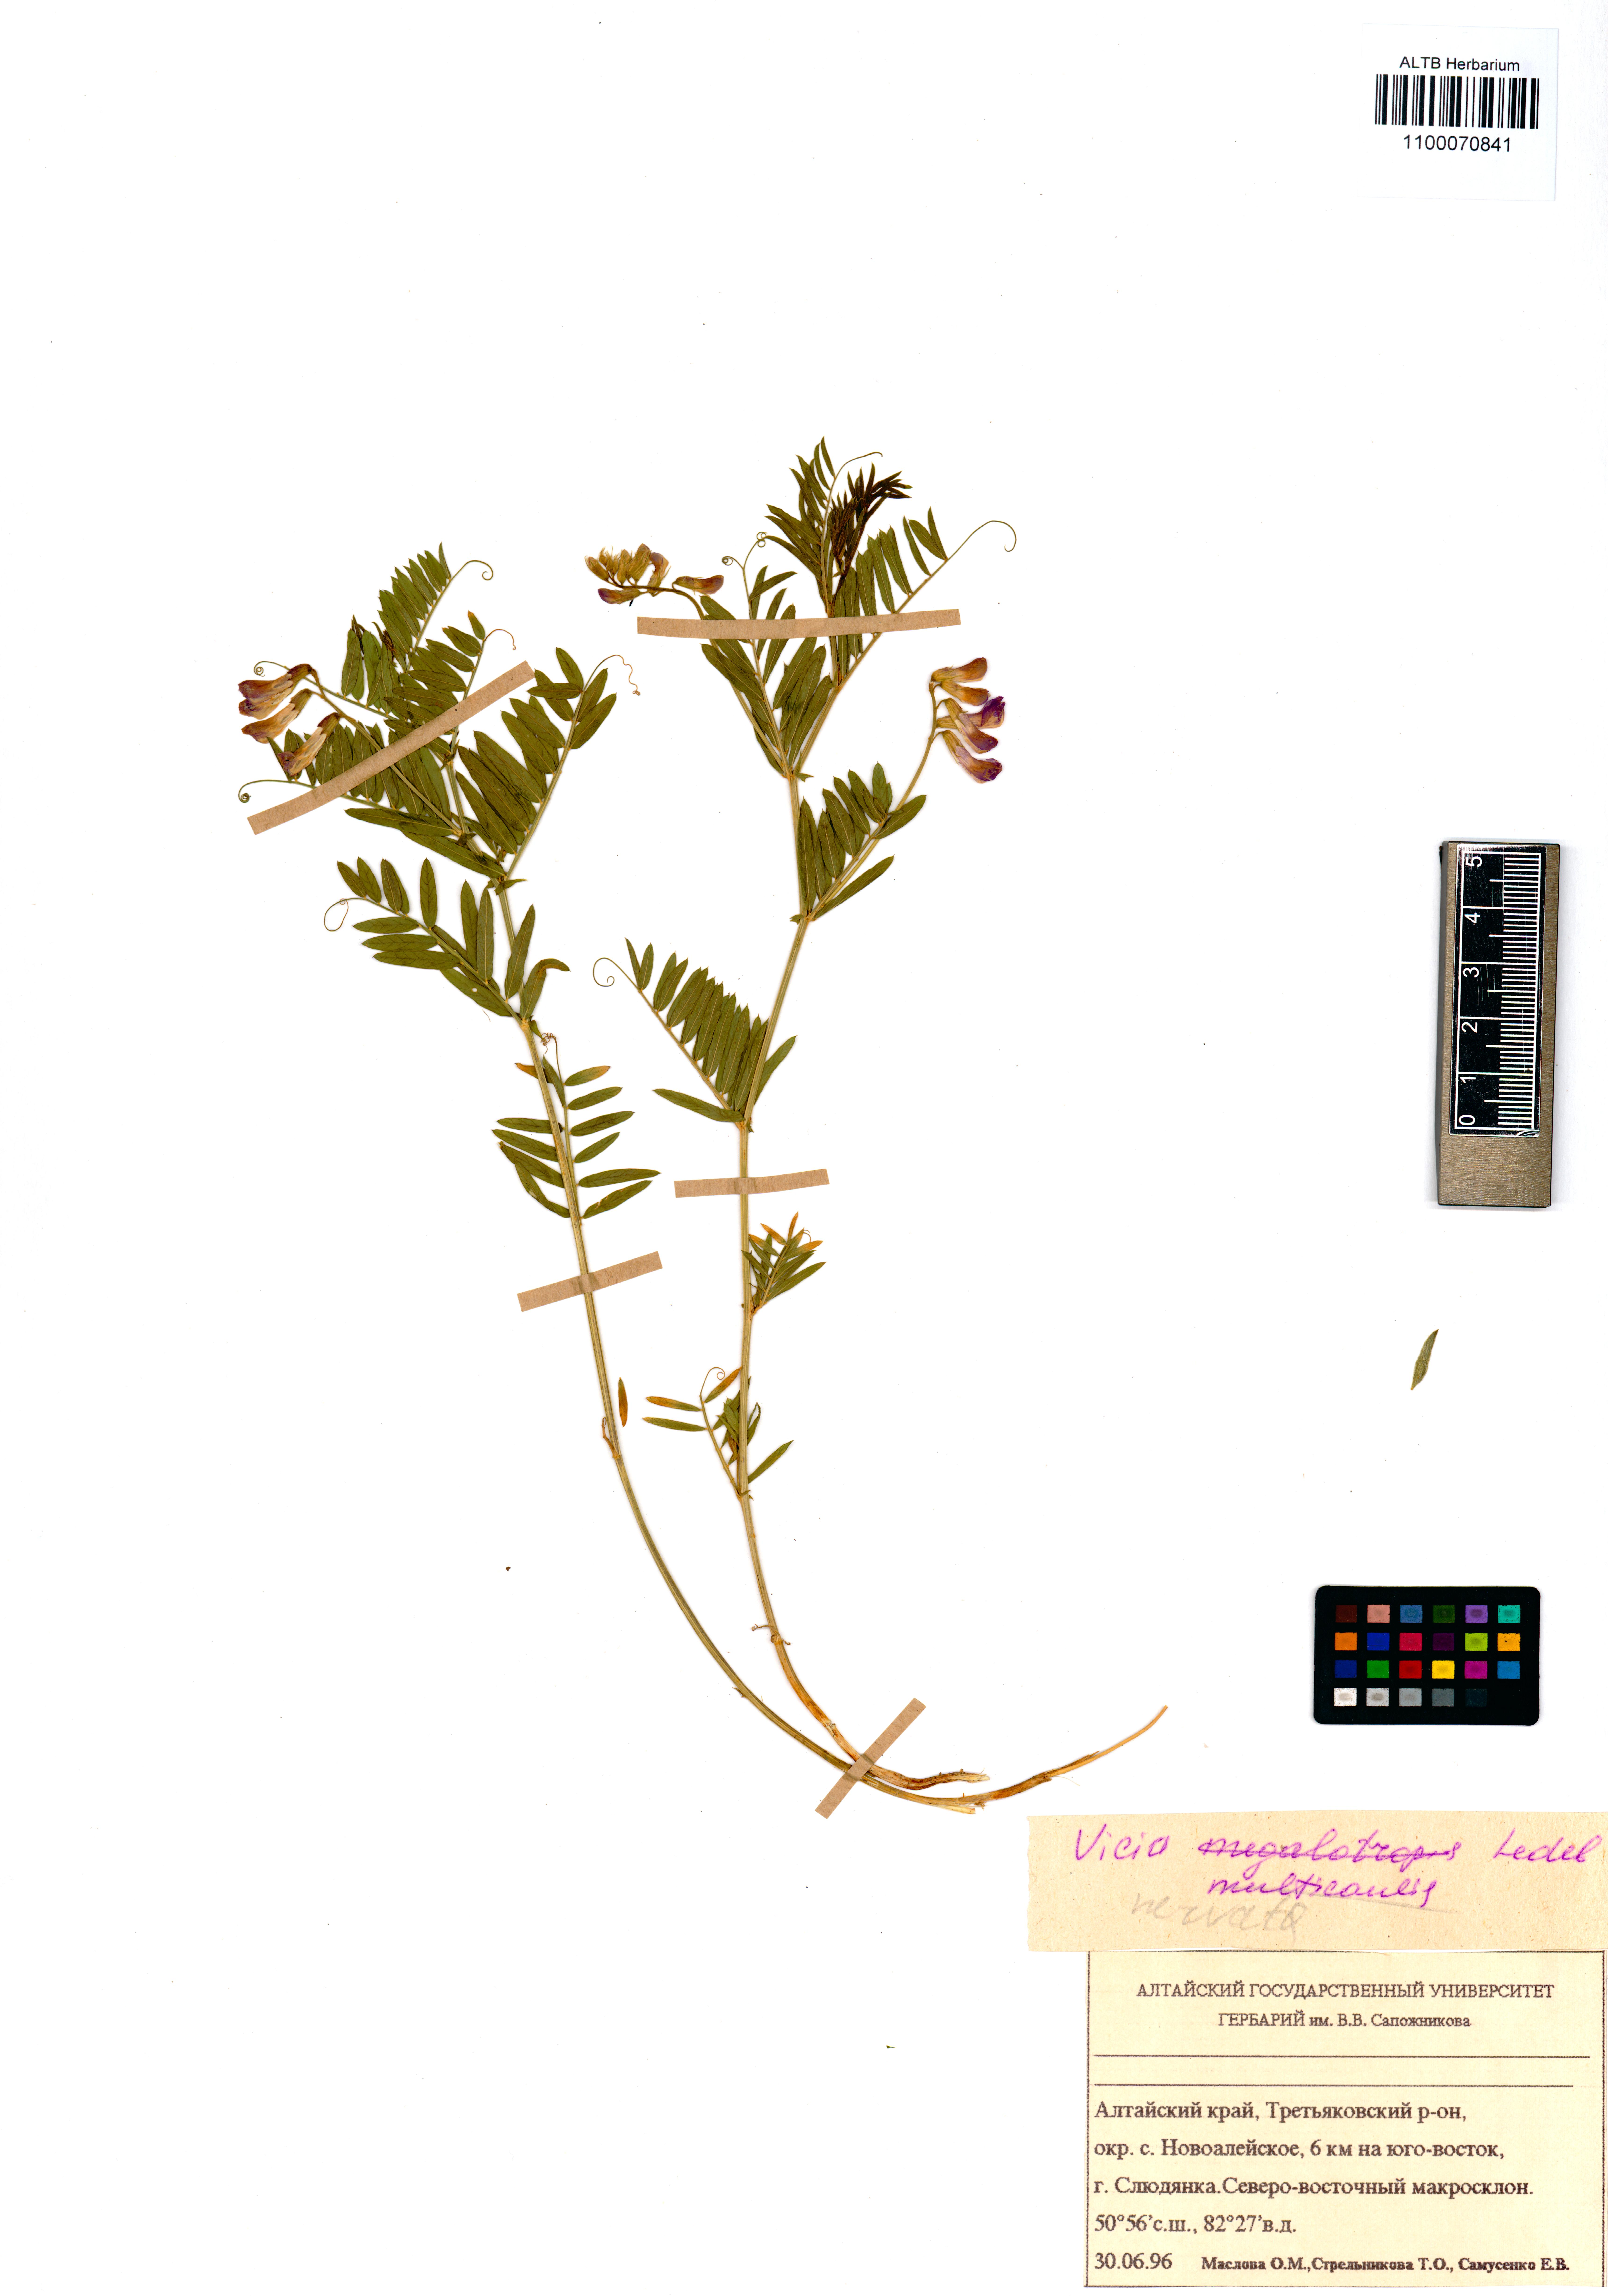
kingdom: Plantae
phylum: Tracheophyta
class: Magnoliopsida
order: Fabales
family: Fabaceae
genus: Vicia
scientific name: Vicia multicaulis
